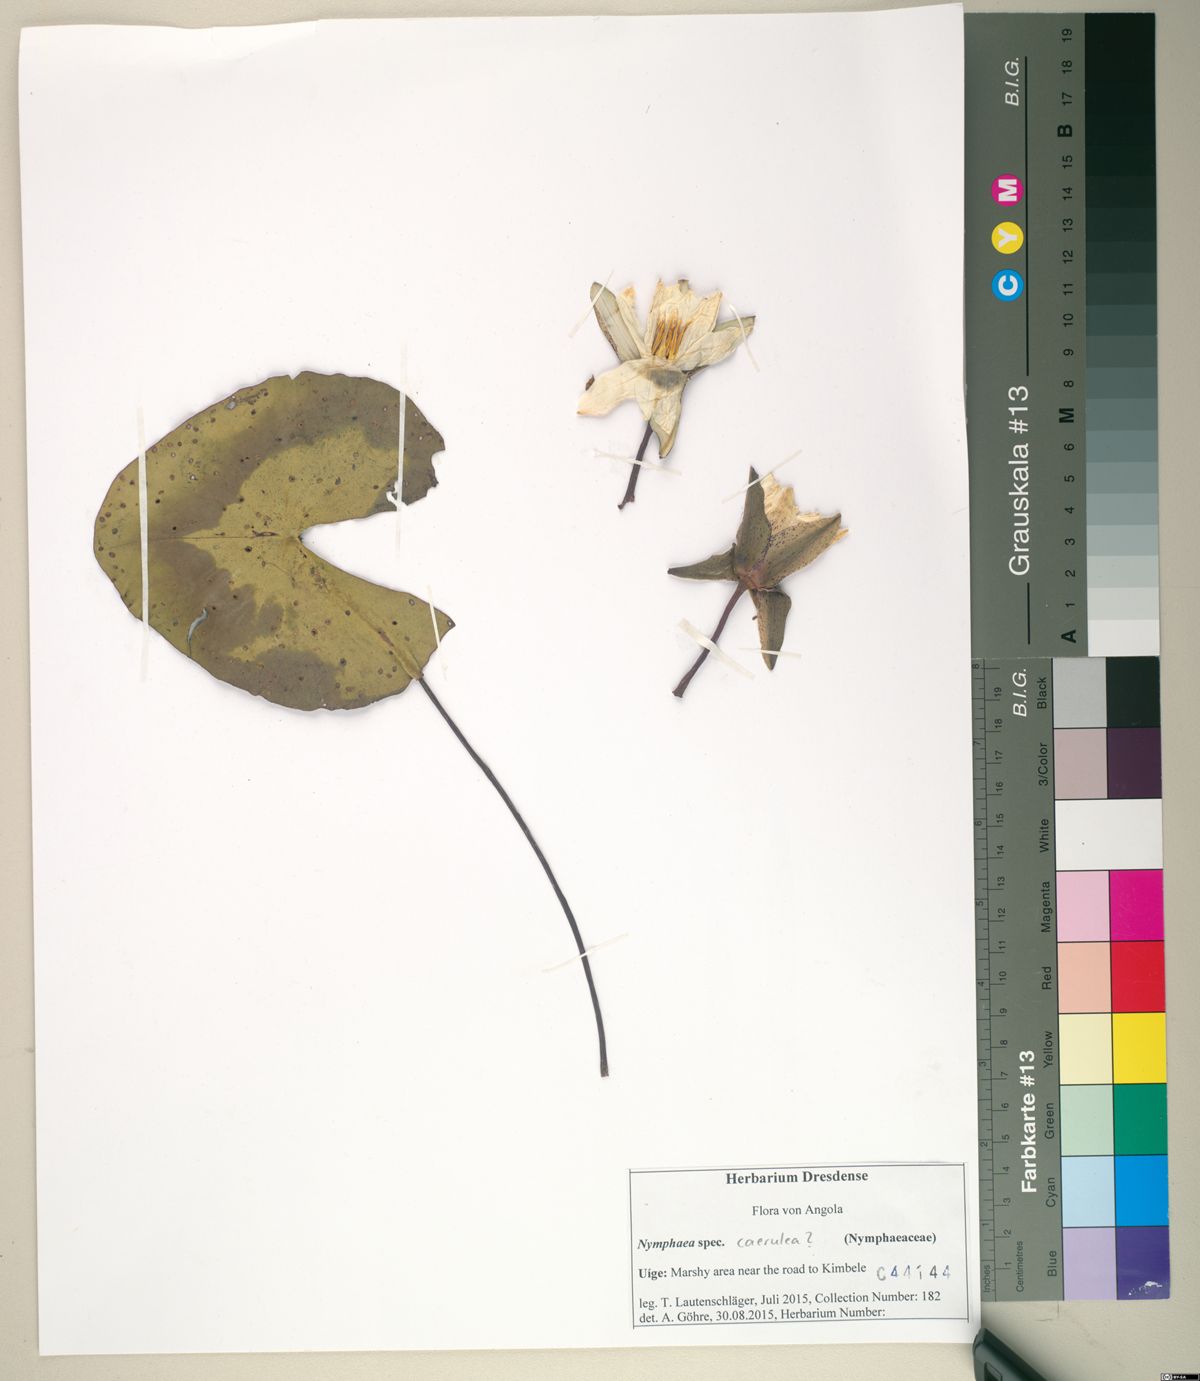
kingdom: Plantae
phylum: Tracheophyta
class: Magnoliopsida
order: Nymphaeales
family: Nymphaeaceae
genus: Nymphaea
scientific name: Nymphaea
